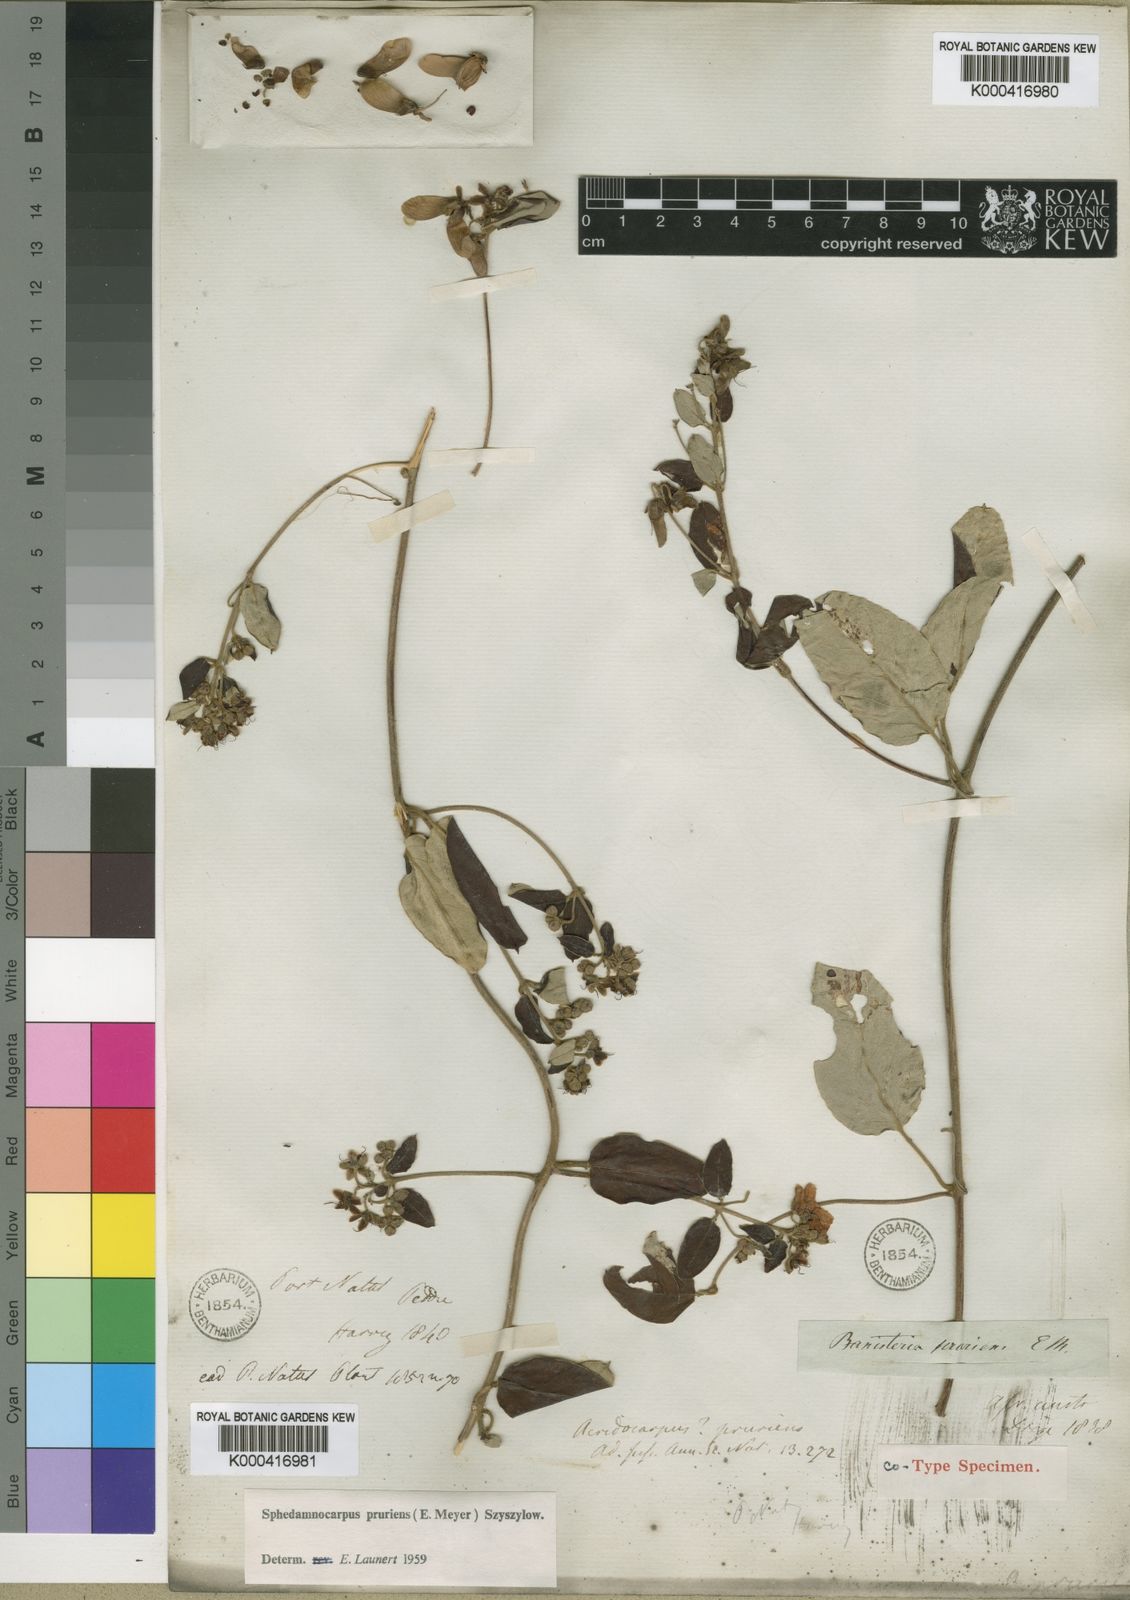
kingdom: Plantae
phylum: Tracheophyta
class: Magnoliopsida
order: Malpighiales
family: Malpighiaceae
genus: Sphedamnocarpus
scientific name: Sphedamnocarpus pruriens
